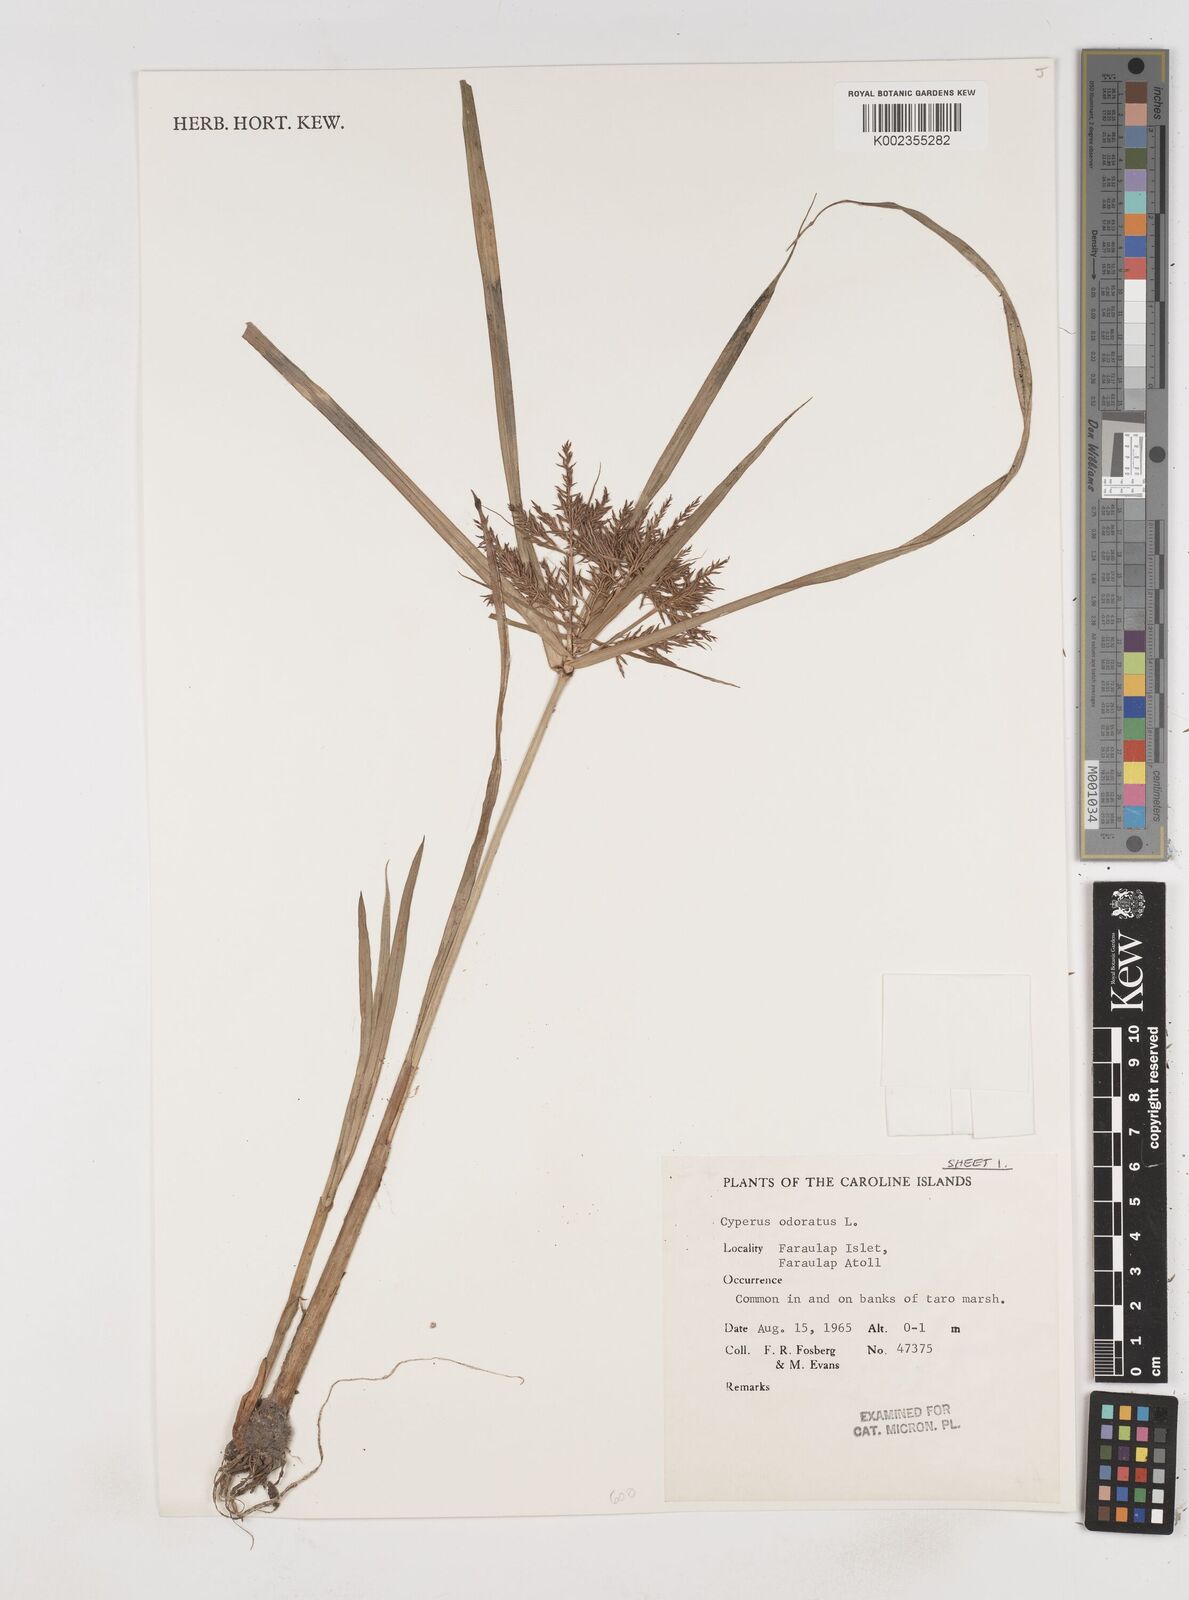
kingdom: Plantae
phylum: Tracheophyta
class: Liliopsida
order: Poales
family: Cyperaceae
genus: Cyperus
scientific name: Cyperus odoratus
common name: Fragrant flatsedge
